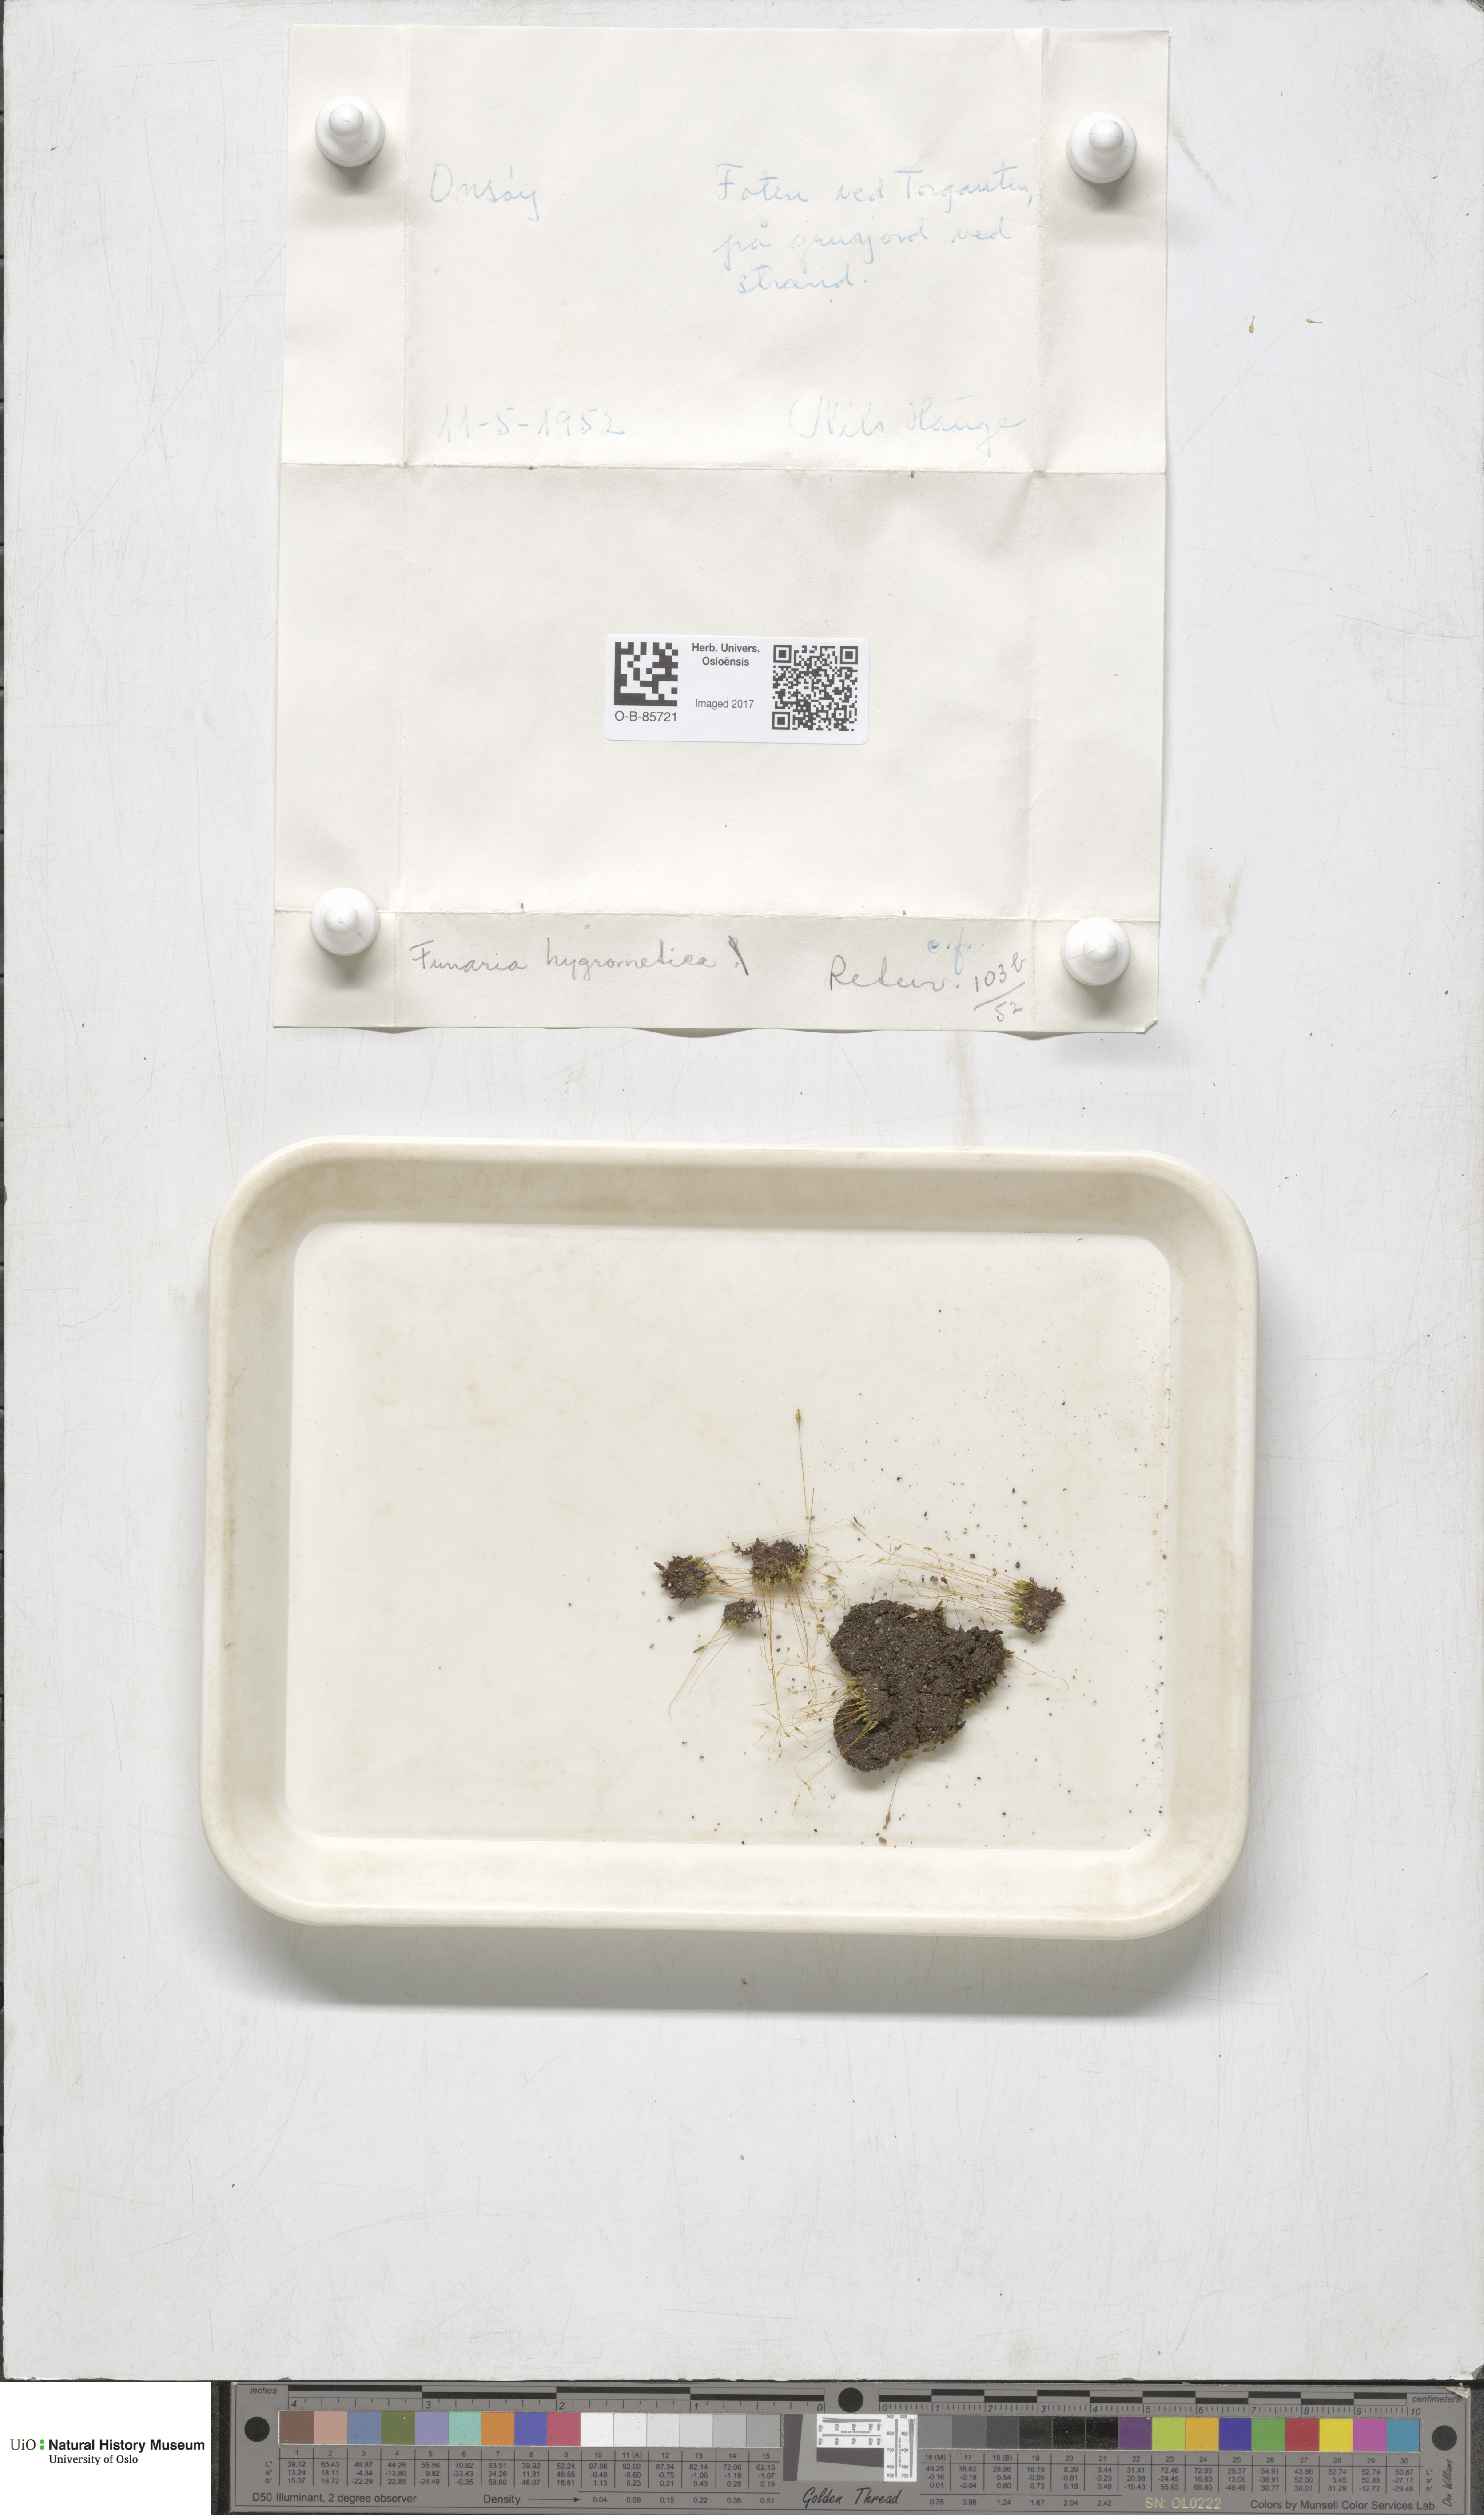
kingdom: Plantae
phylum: Bryophyta
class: Bryopsida
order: Funariales
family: Funariaceae
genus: Funaria
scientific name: Funaria hygrometrica
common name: Common cord moss
